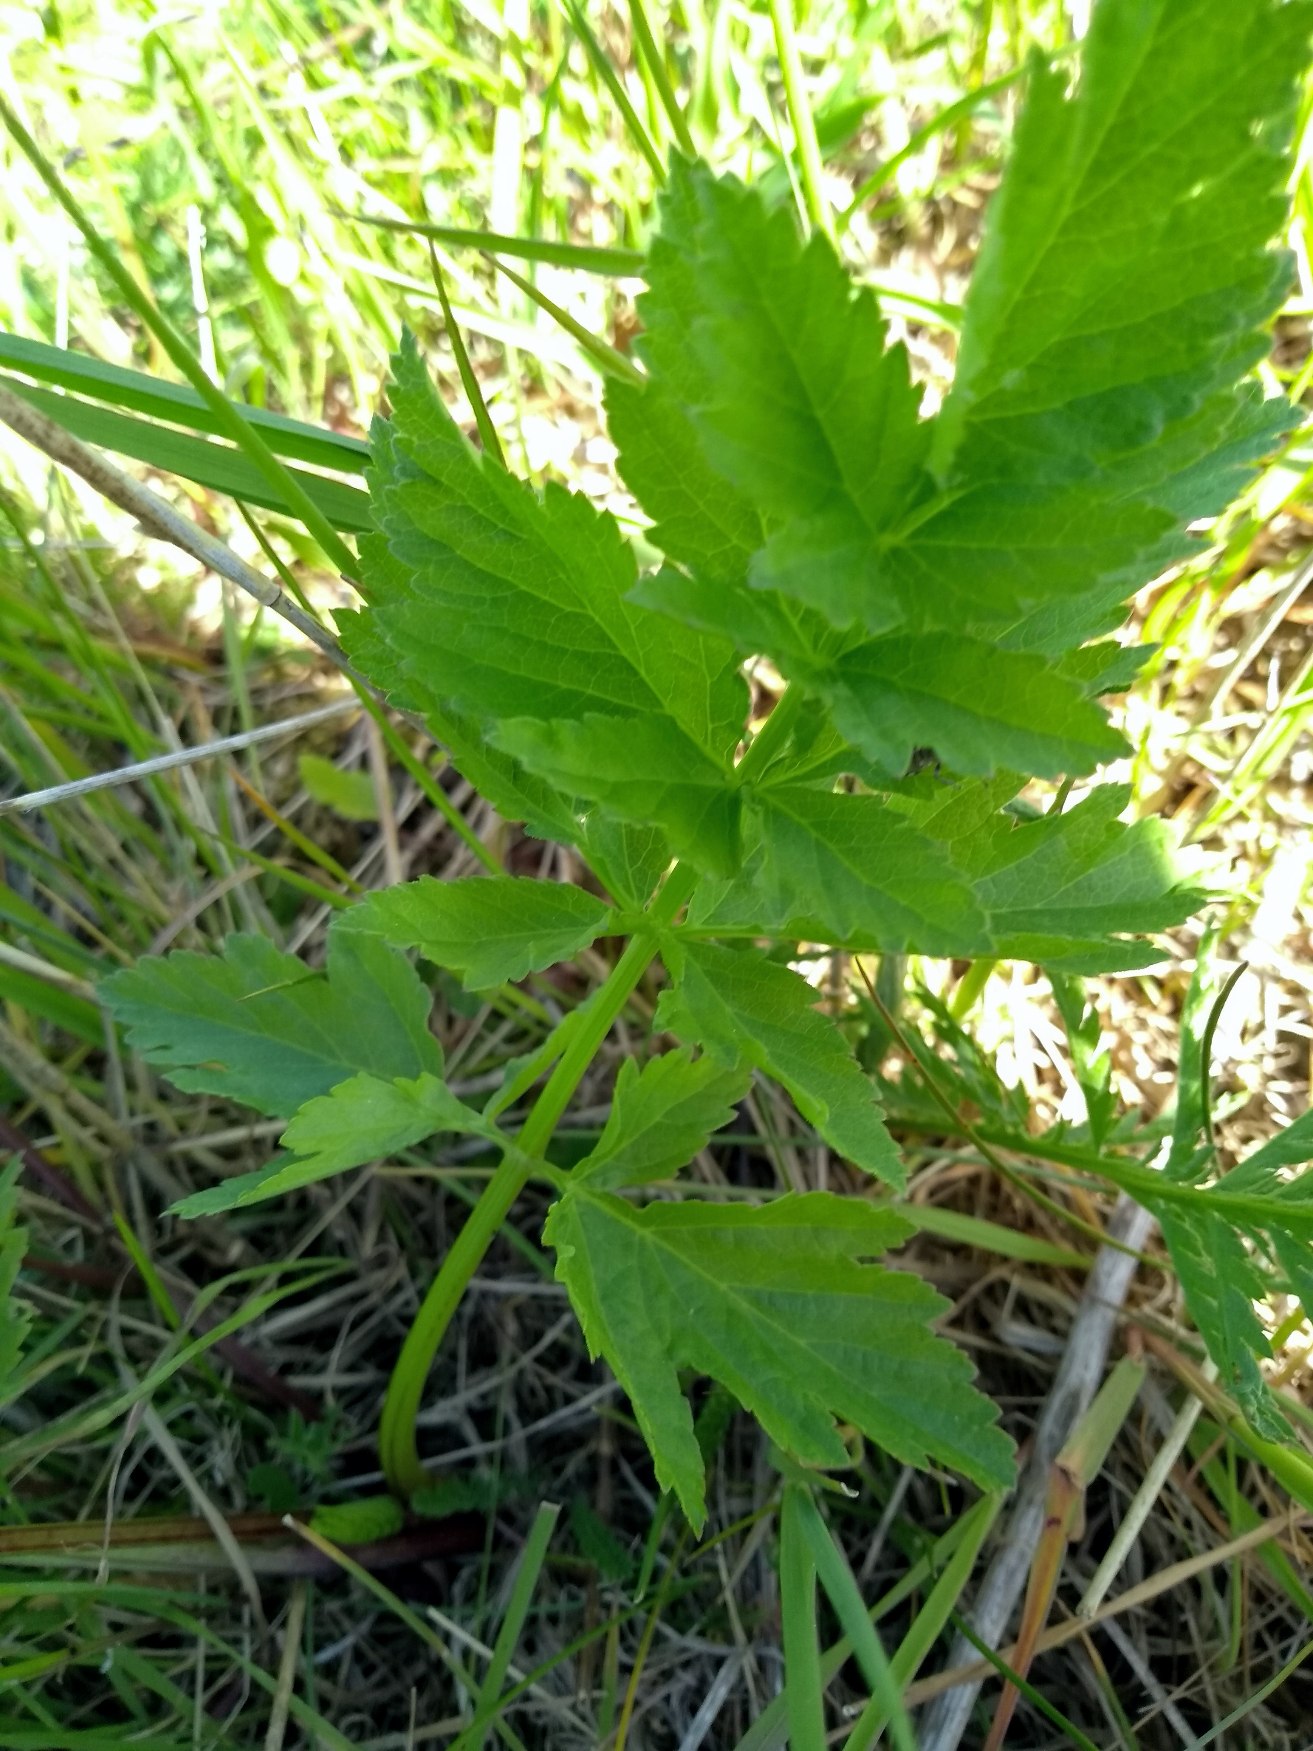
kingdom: Plantae
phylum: Tracheophyta
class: Magnoliopsida
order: Apiales
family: Apiaceae
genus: Pastinaca
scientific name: Pastinaca sativa
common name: Pastinak
